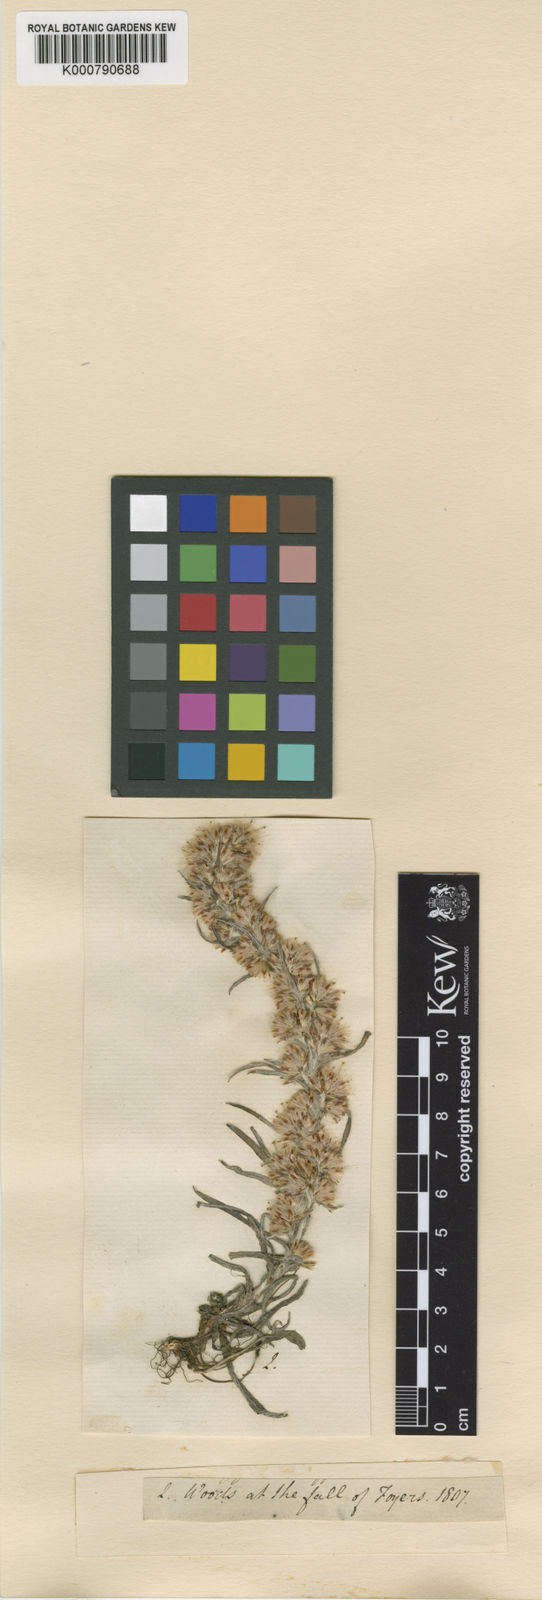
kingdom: Plantae
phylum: Tracheophyta
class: Magnoliopsida
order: Asterales
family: Asteraceae
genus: Omalotheca
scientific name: Omalotheca sylvatica
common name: Heath cudweed
